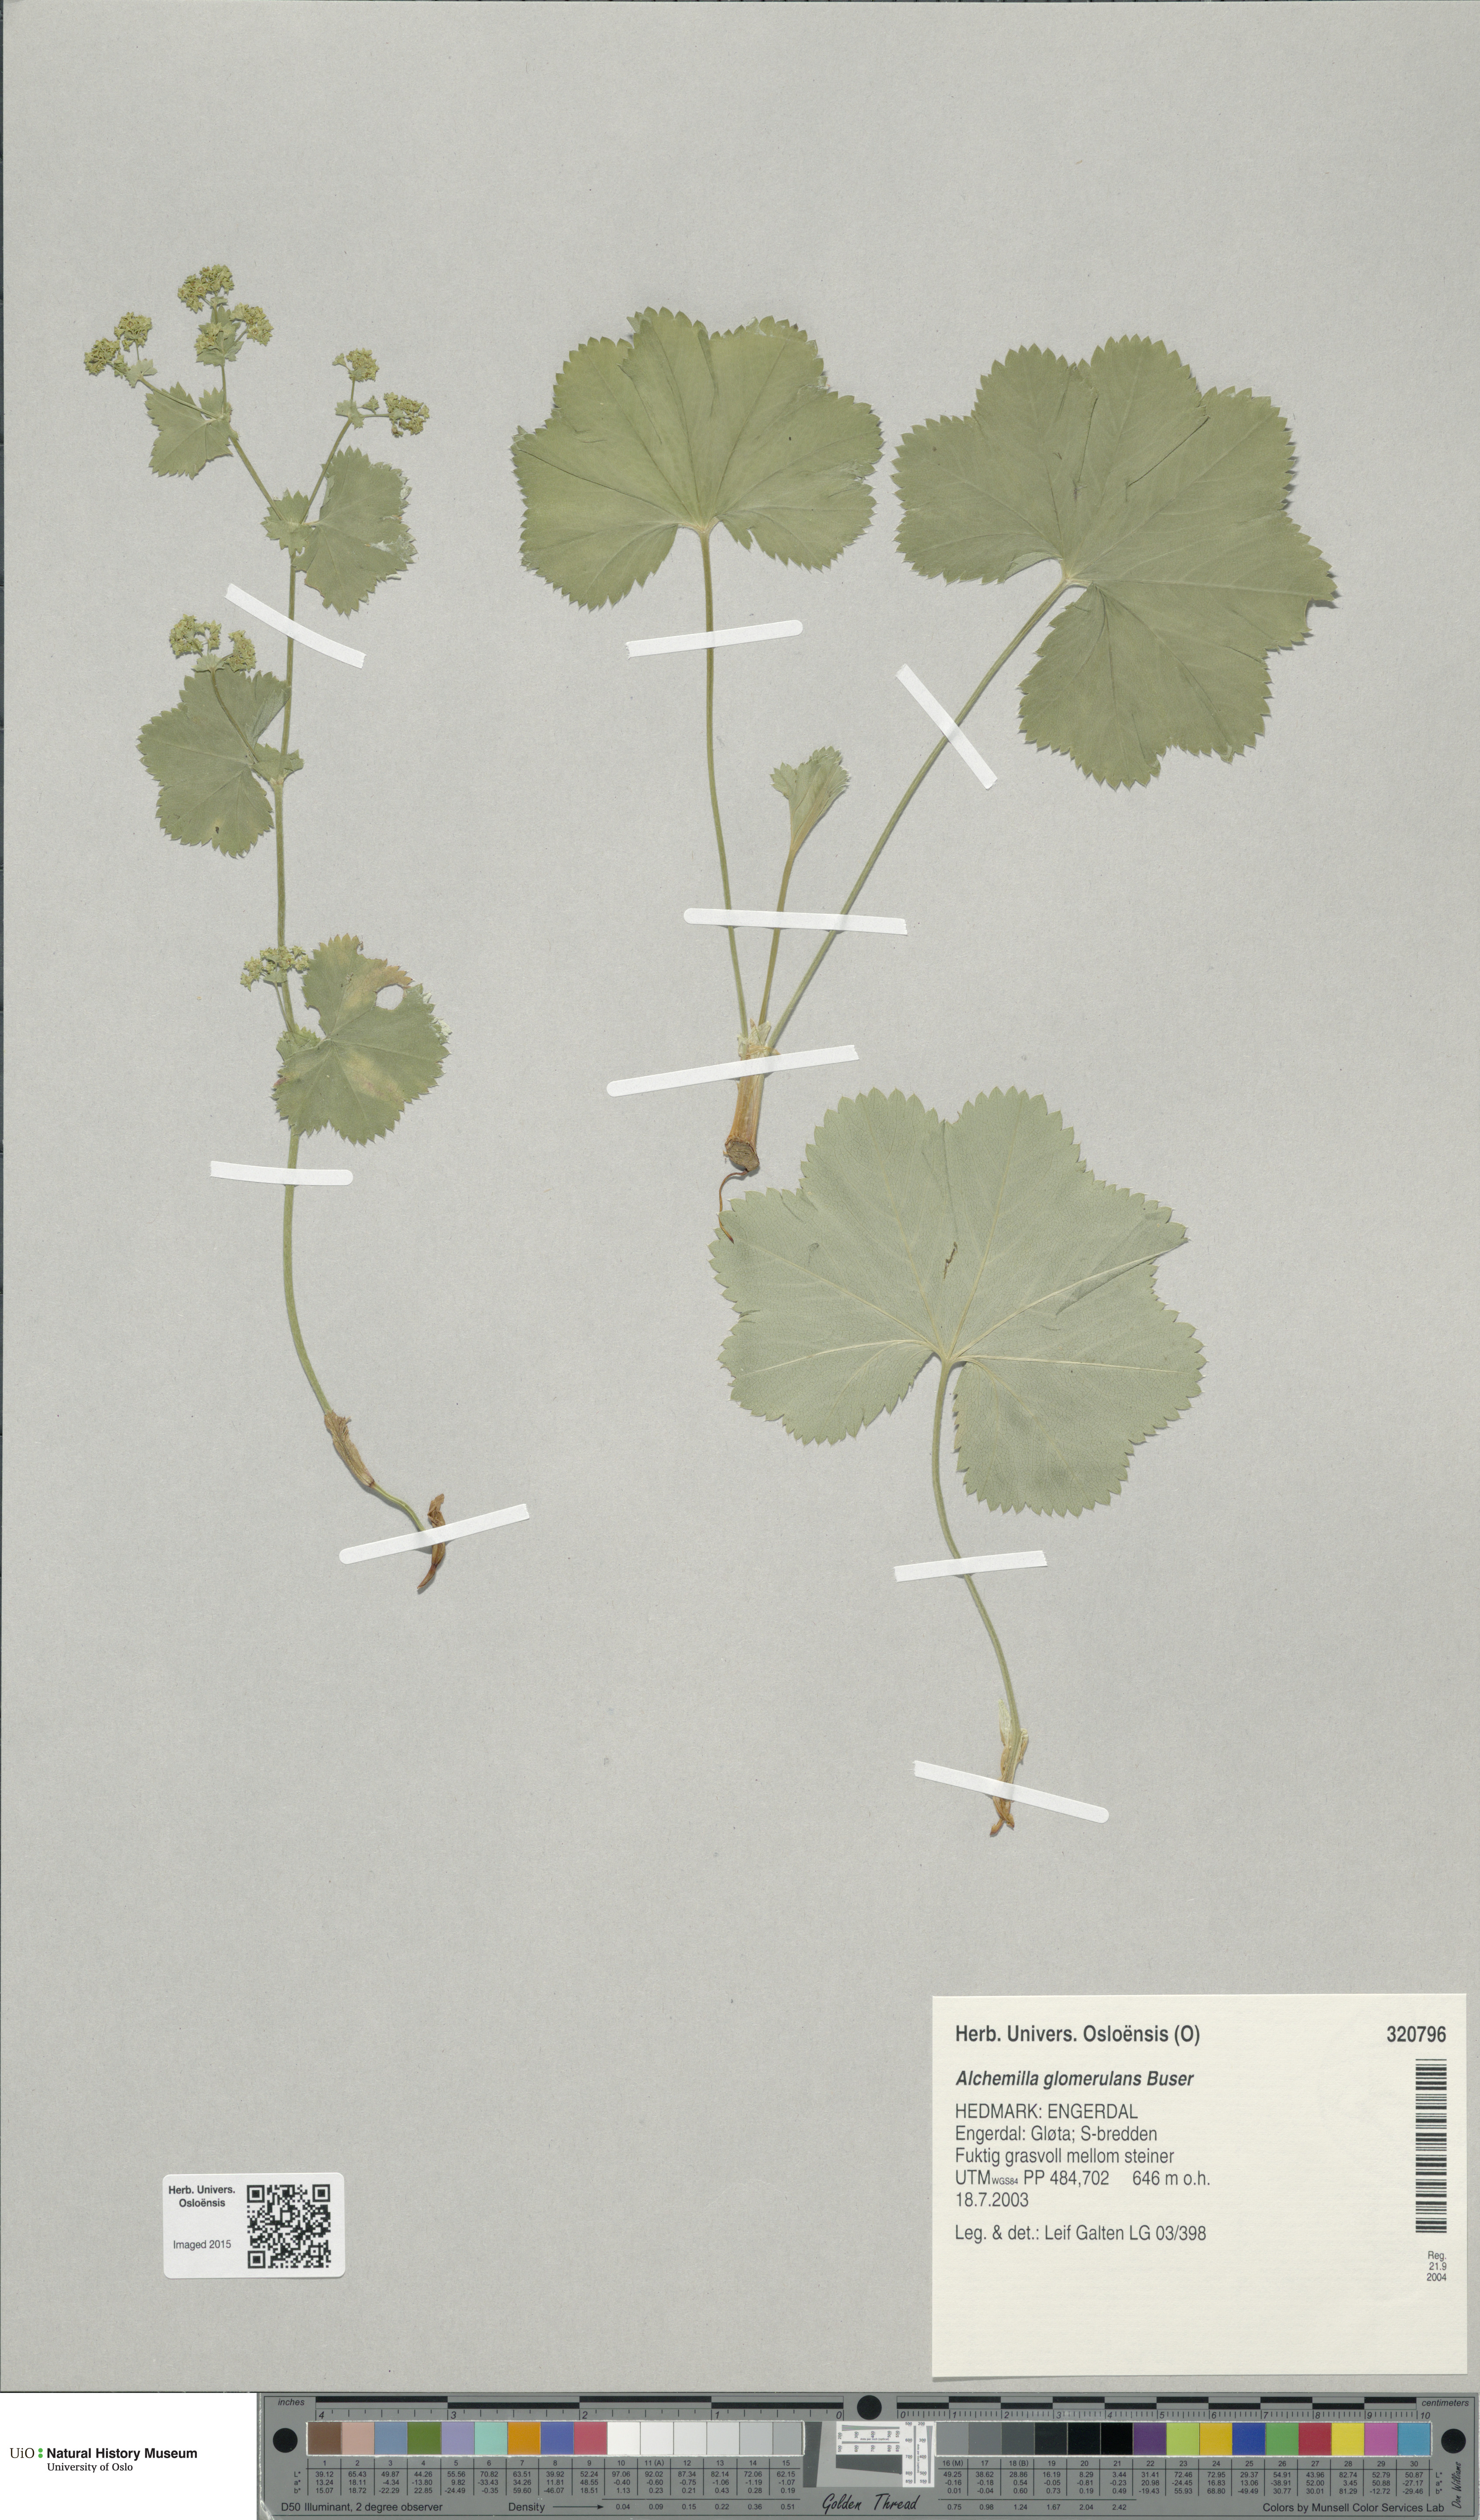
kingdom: Plantae
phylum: Tracheophyta
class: Magnoliopsida
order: Rosales
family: Rosaceae
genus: Alchemilla
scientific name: Alchemilla glomerulans
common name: Clustered lady's mantle
